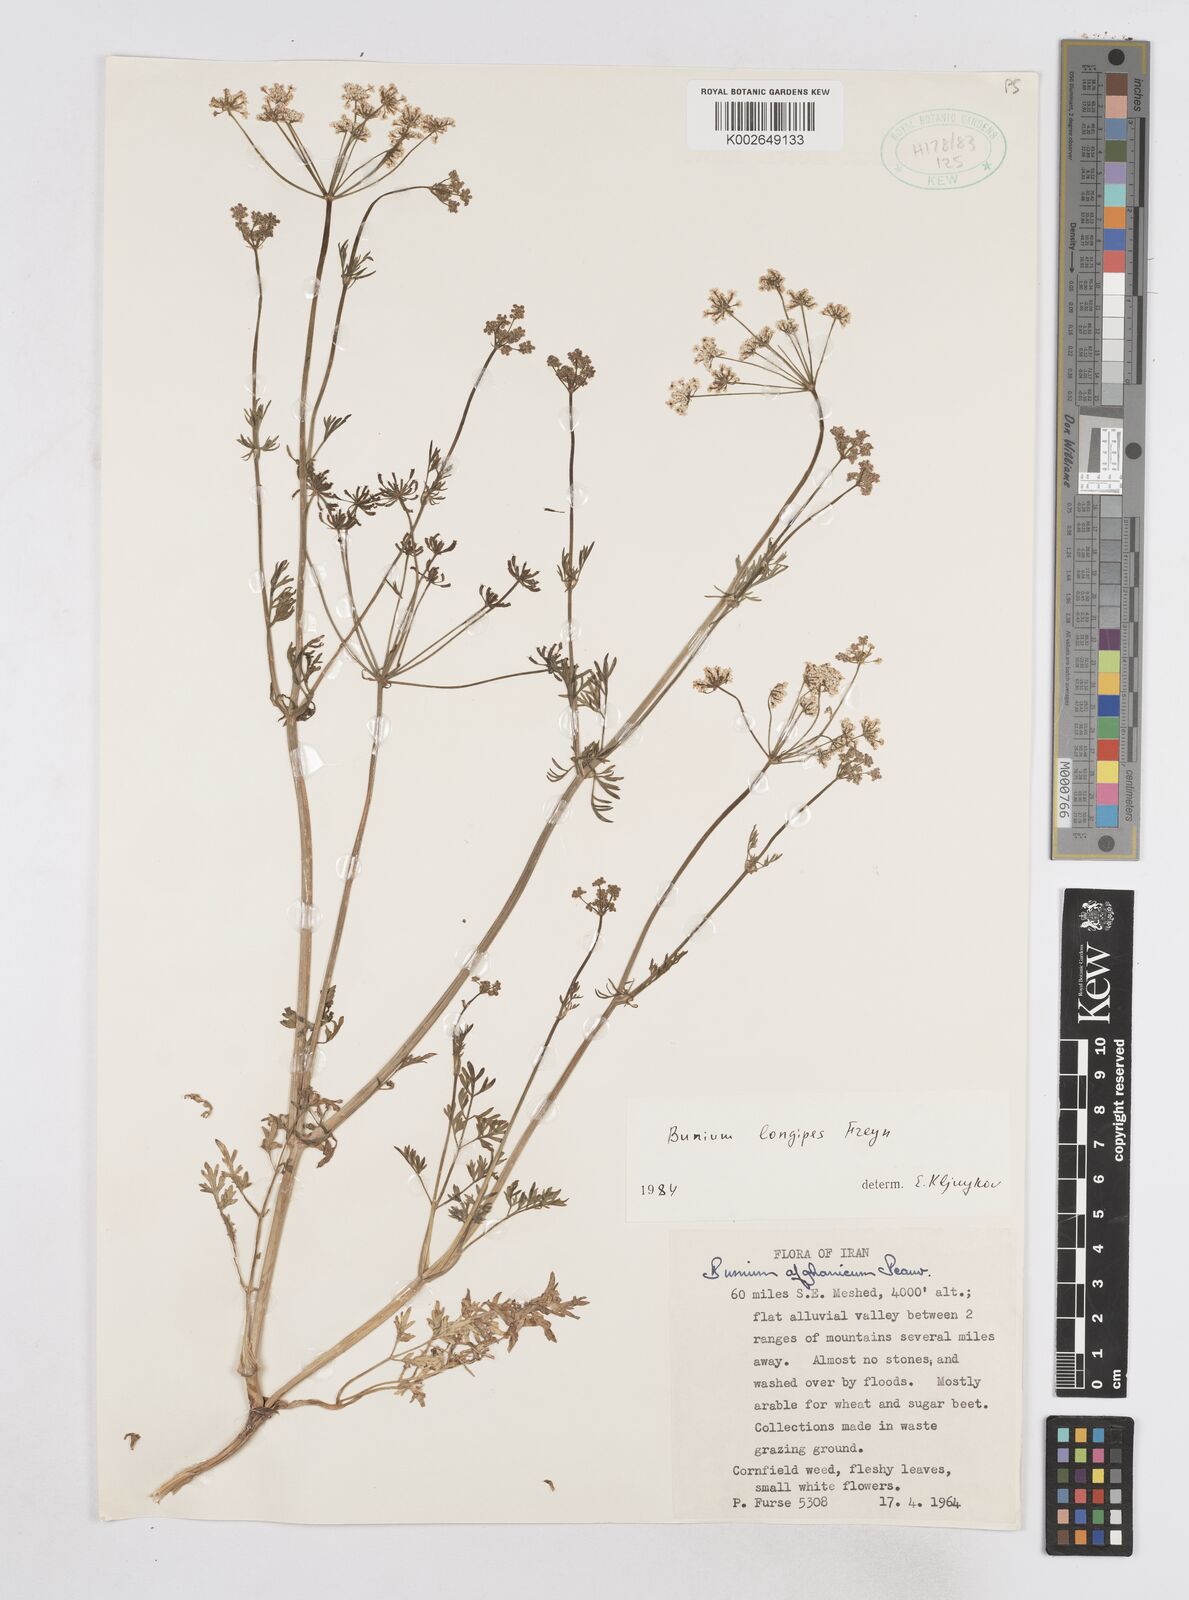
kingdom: Plantae
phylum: Tracheophyta
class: Magnoliopsida
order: Apiales
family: Apiaceae
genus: Elwendia
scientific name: Elwendia longipes
